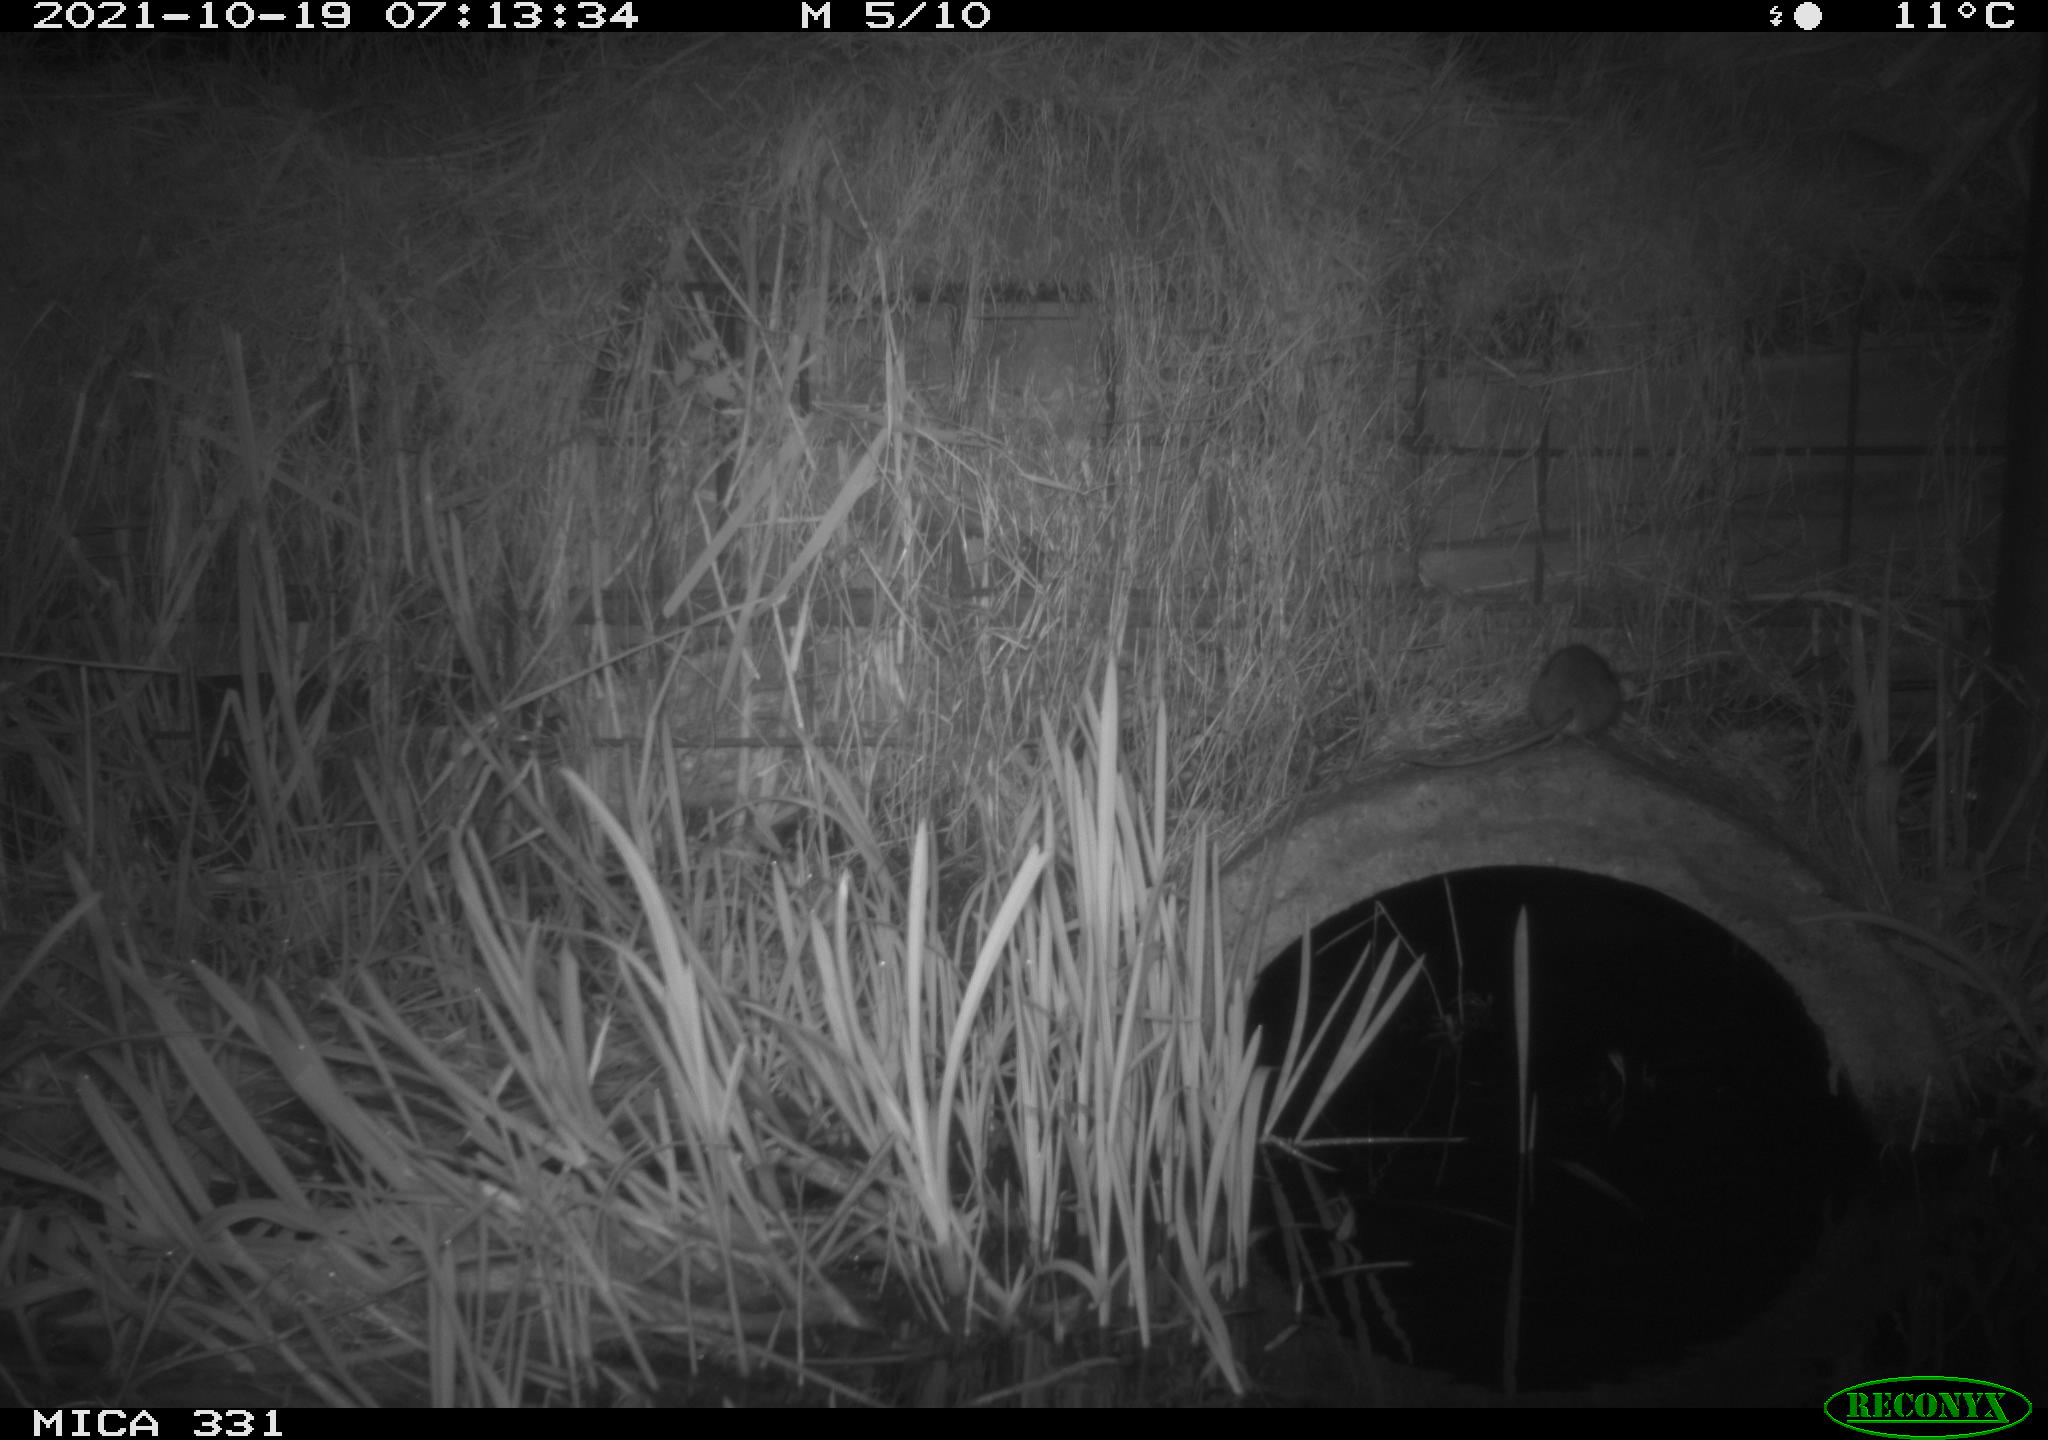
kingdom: Animalia
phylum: Chordata
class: Mammalia
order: Rodentia
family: Muridae
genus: Rattus
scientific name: Rattus norvegicus
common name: Brown rat
